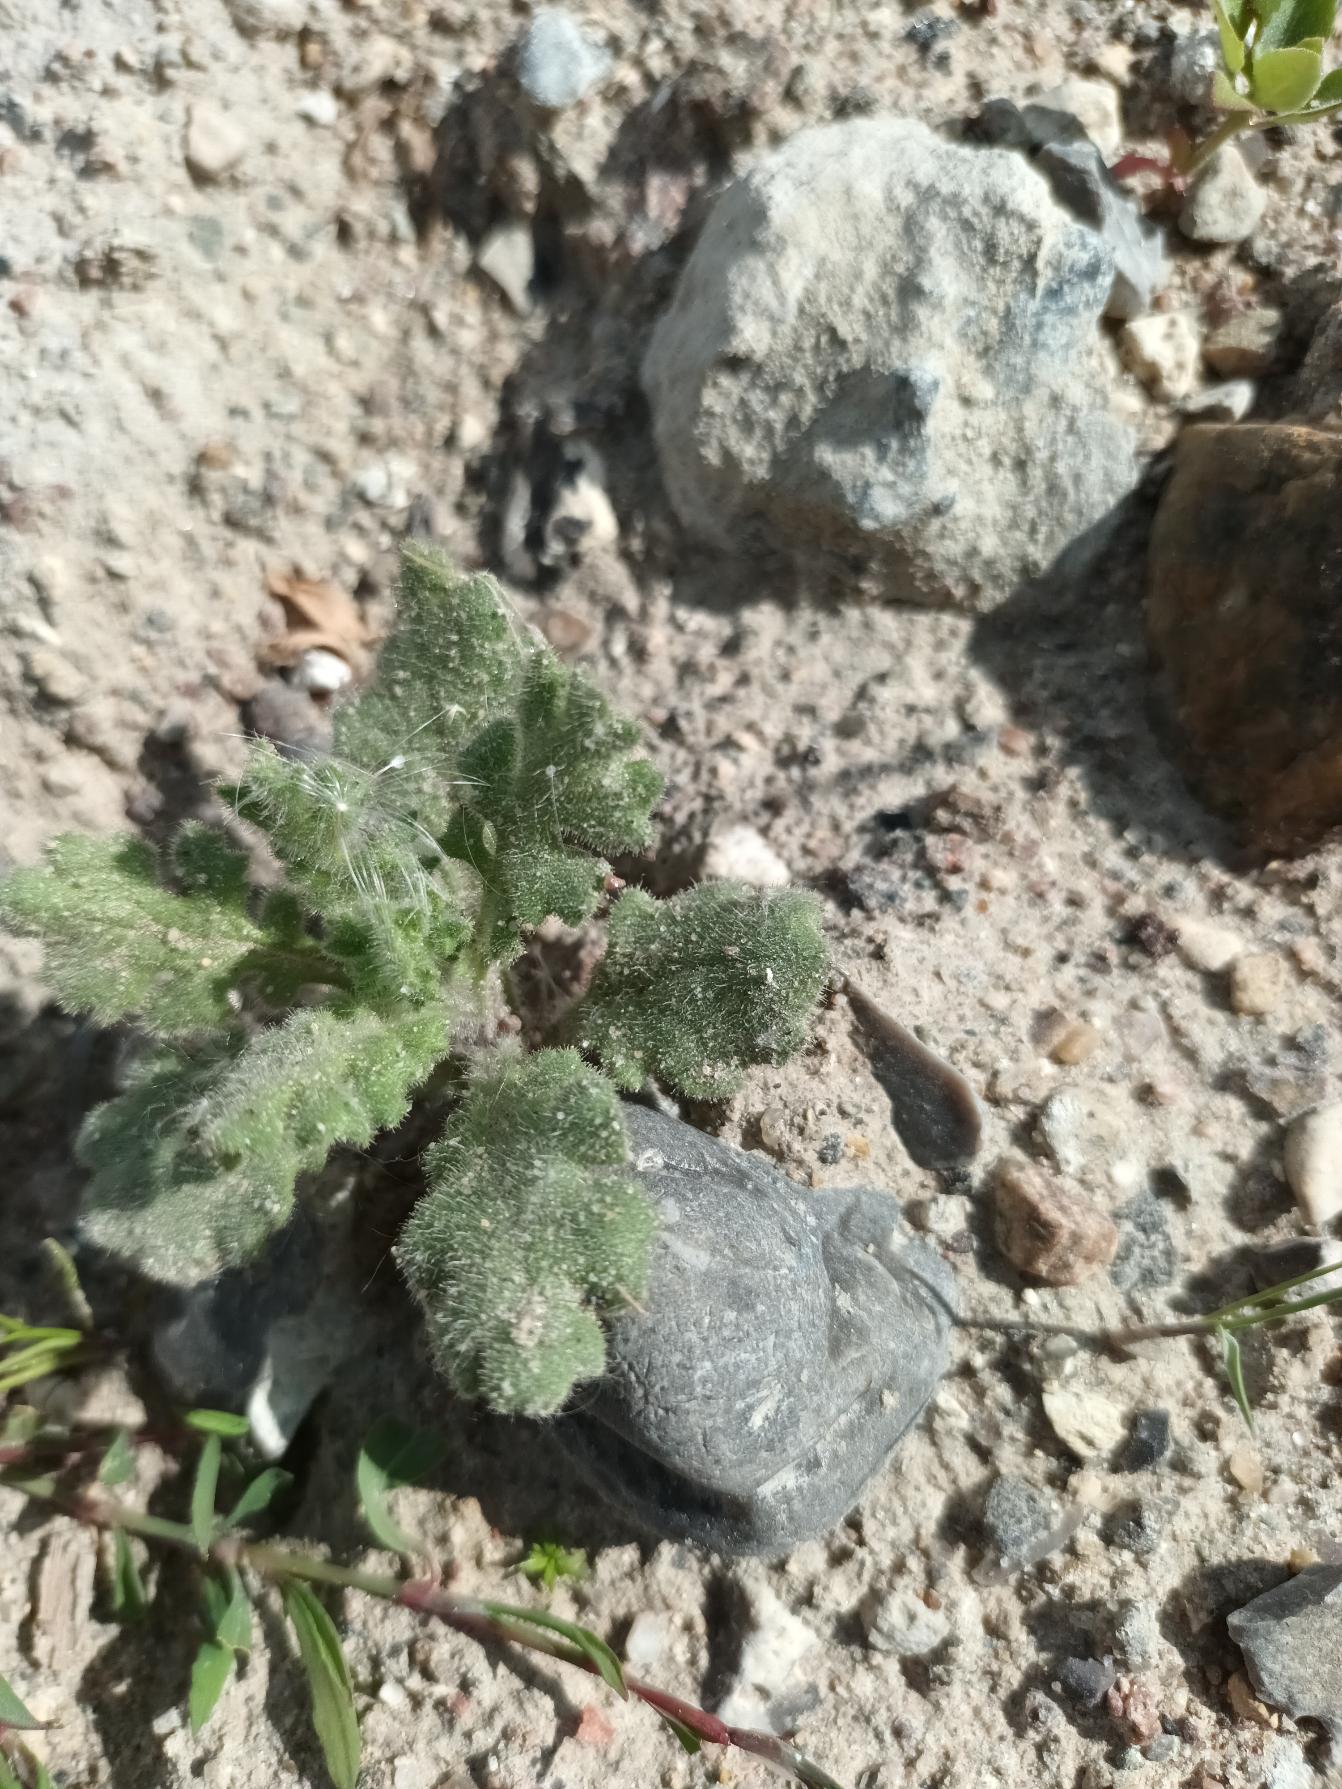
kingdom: Plantae
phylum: Tracheophyta
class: Magnoliopsida
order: Asterales
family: Asteraceae
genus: Senecio
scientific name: Senecio viscosus
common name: Klæbrig brandbæger
